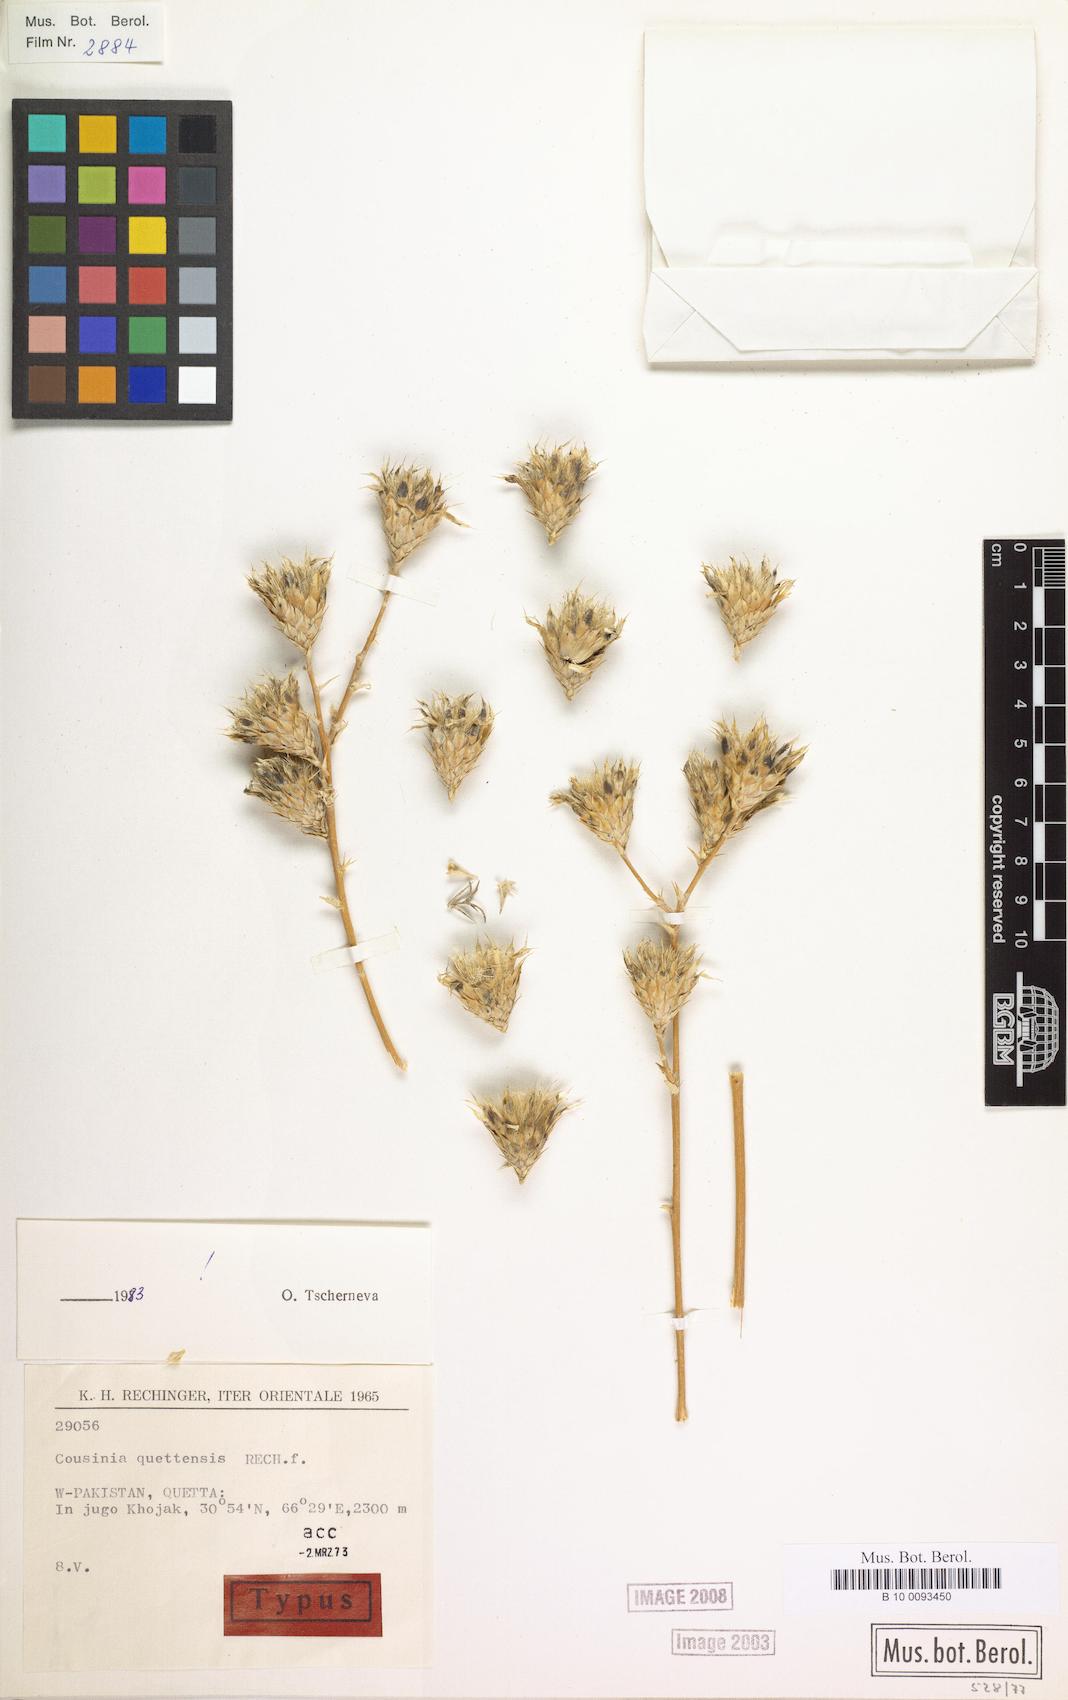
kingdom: Plantae
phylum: Tracheophyta
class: Magnoliopsida
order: Asterales
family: Asteraceae
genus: Cousinia
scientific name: Cousinia quettensis
